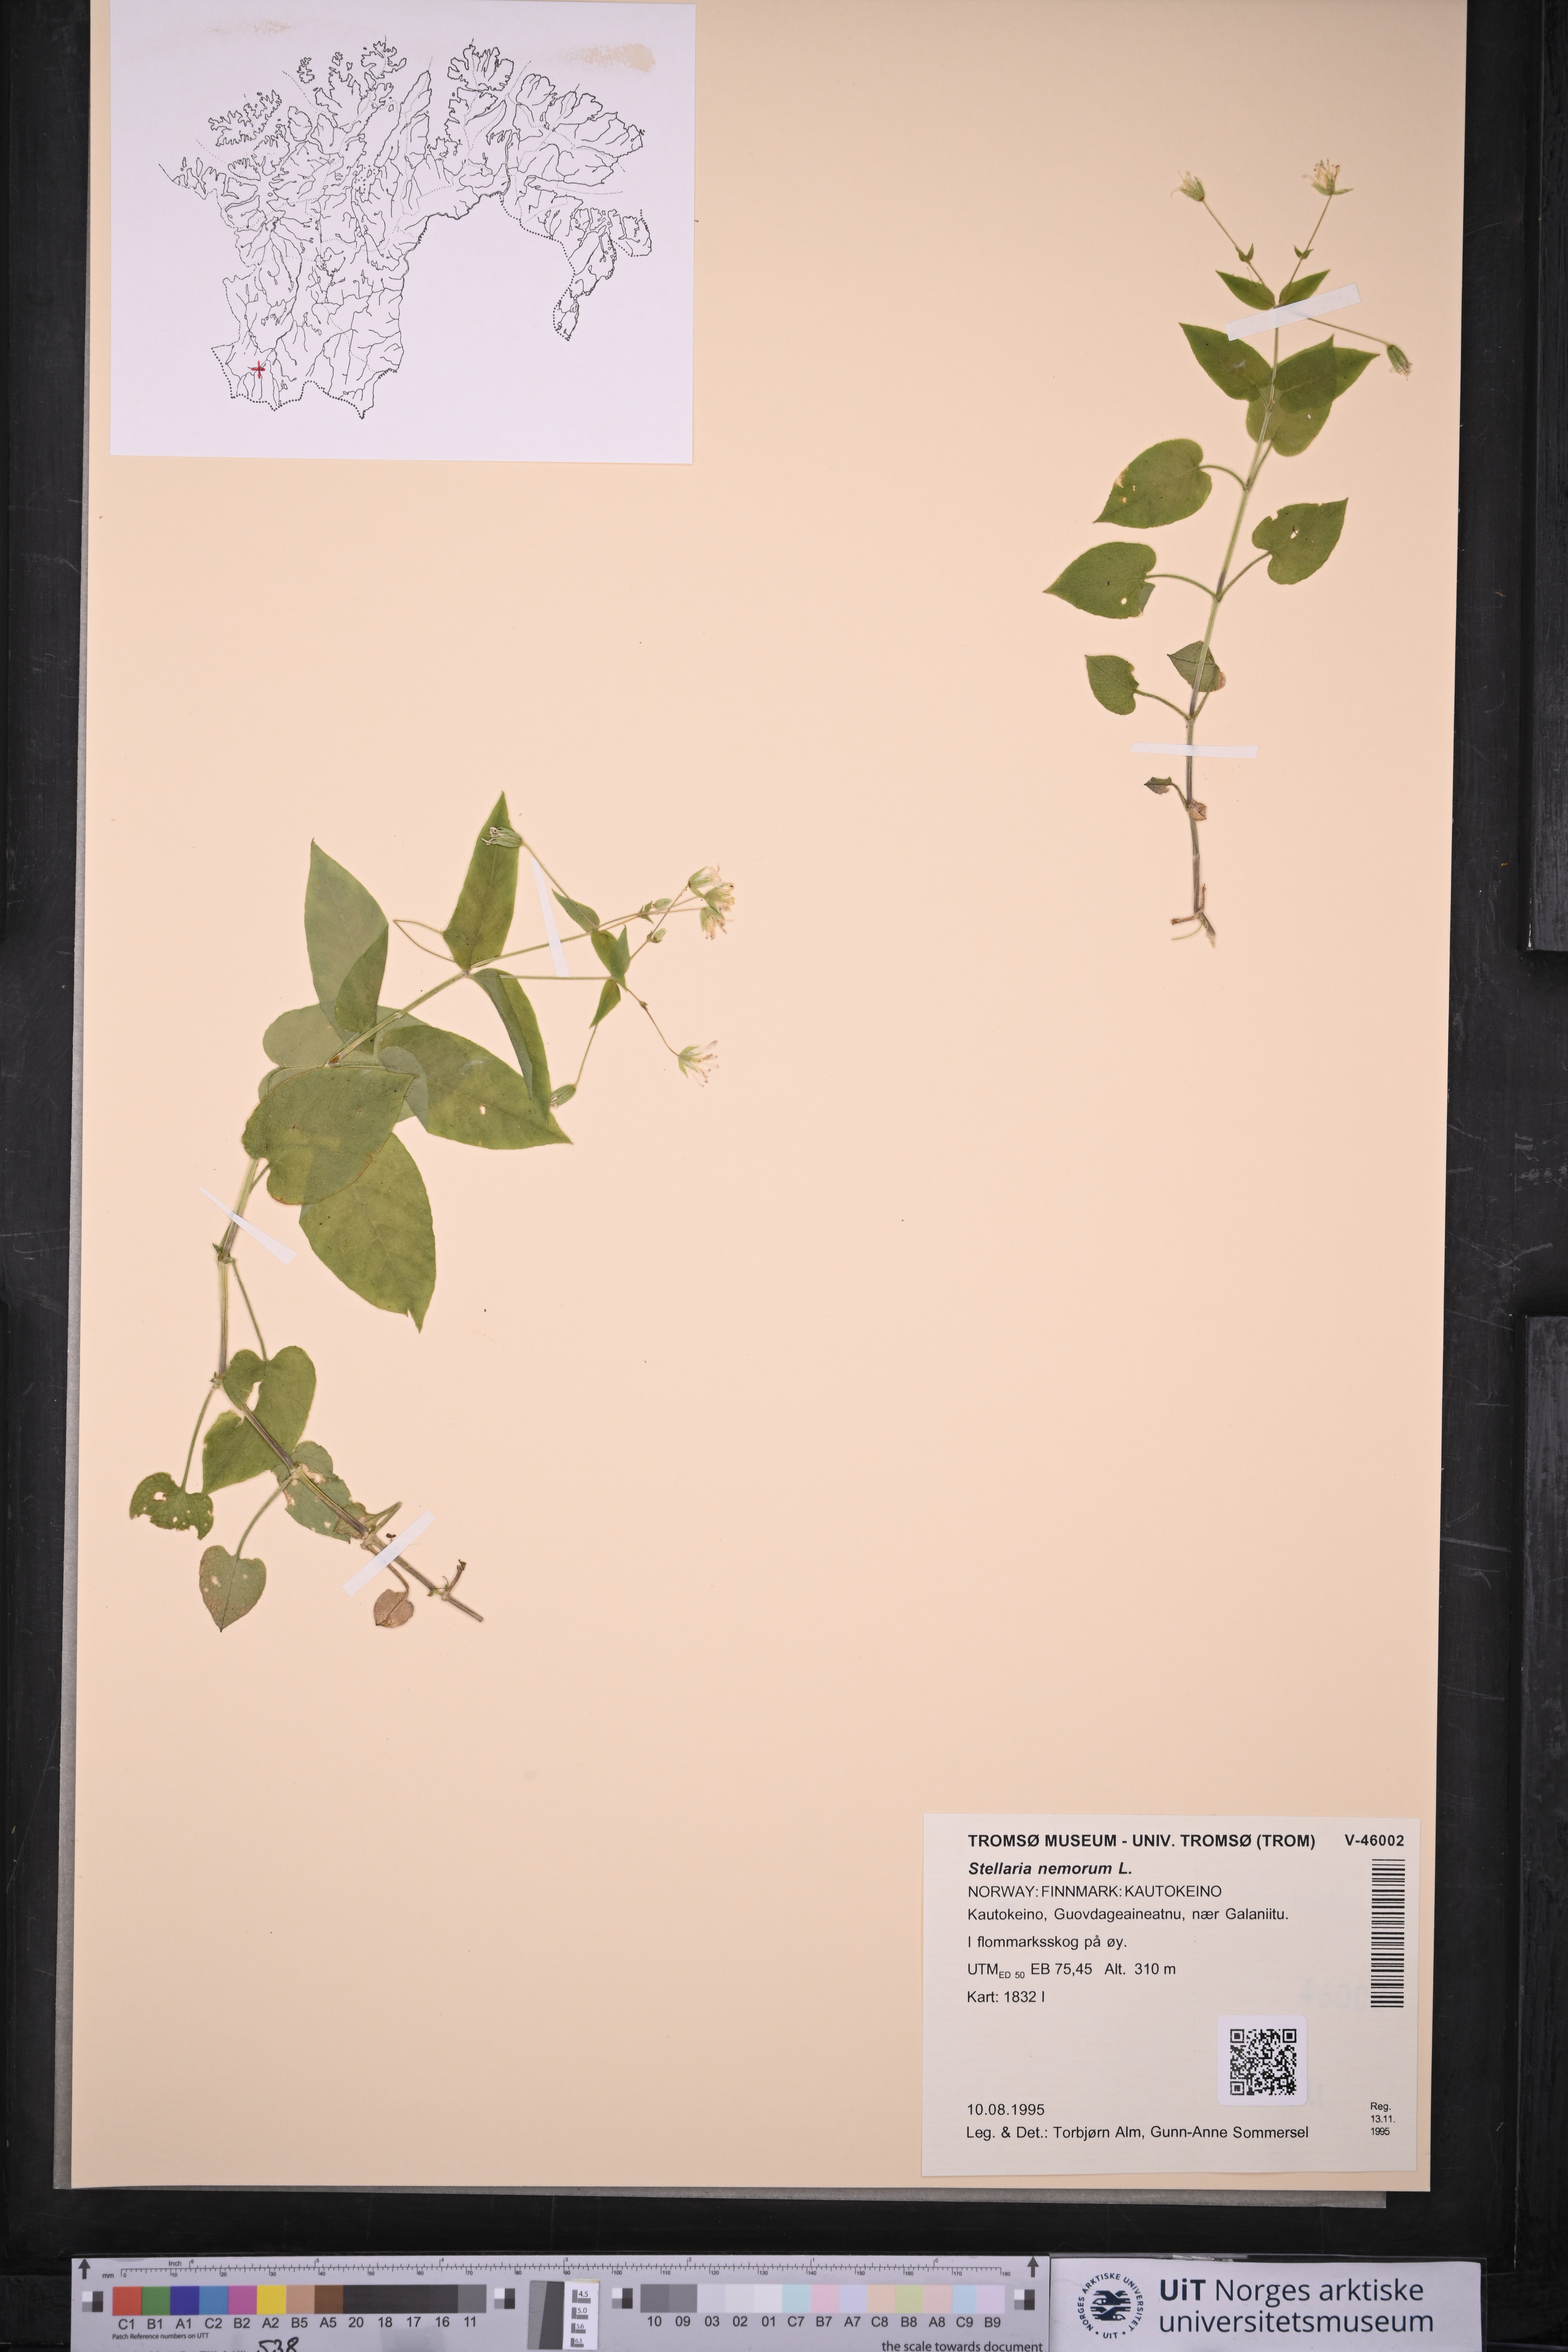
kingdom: Plantae
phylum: Tracheophyta
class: Magnoliopsida
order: Caryophyllales
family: Caryophyllaceae
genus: Stellaria
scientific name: Stellaria nemorum
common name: Wood stitchwort
